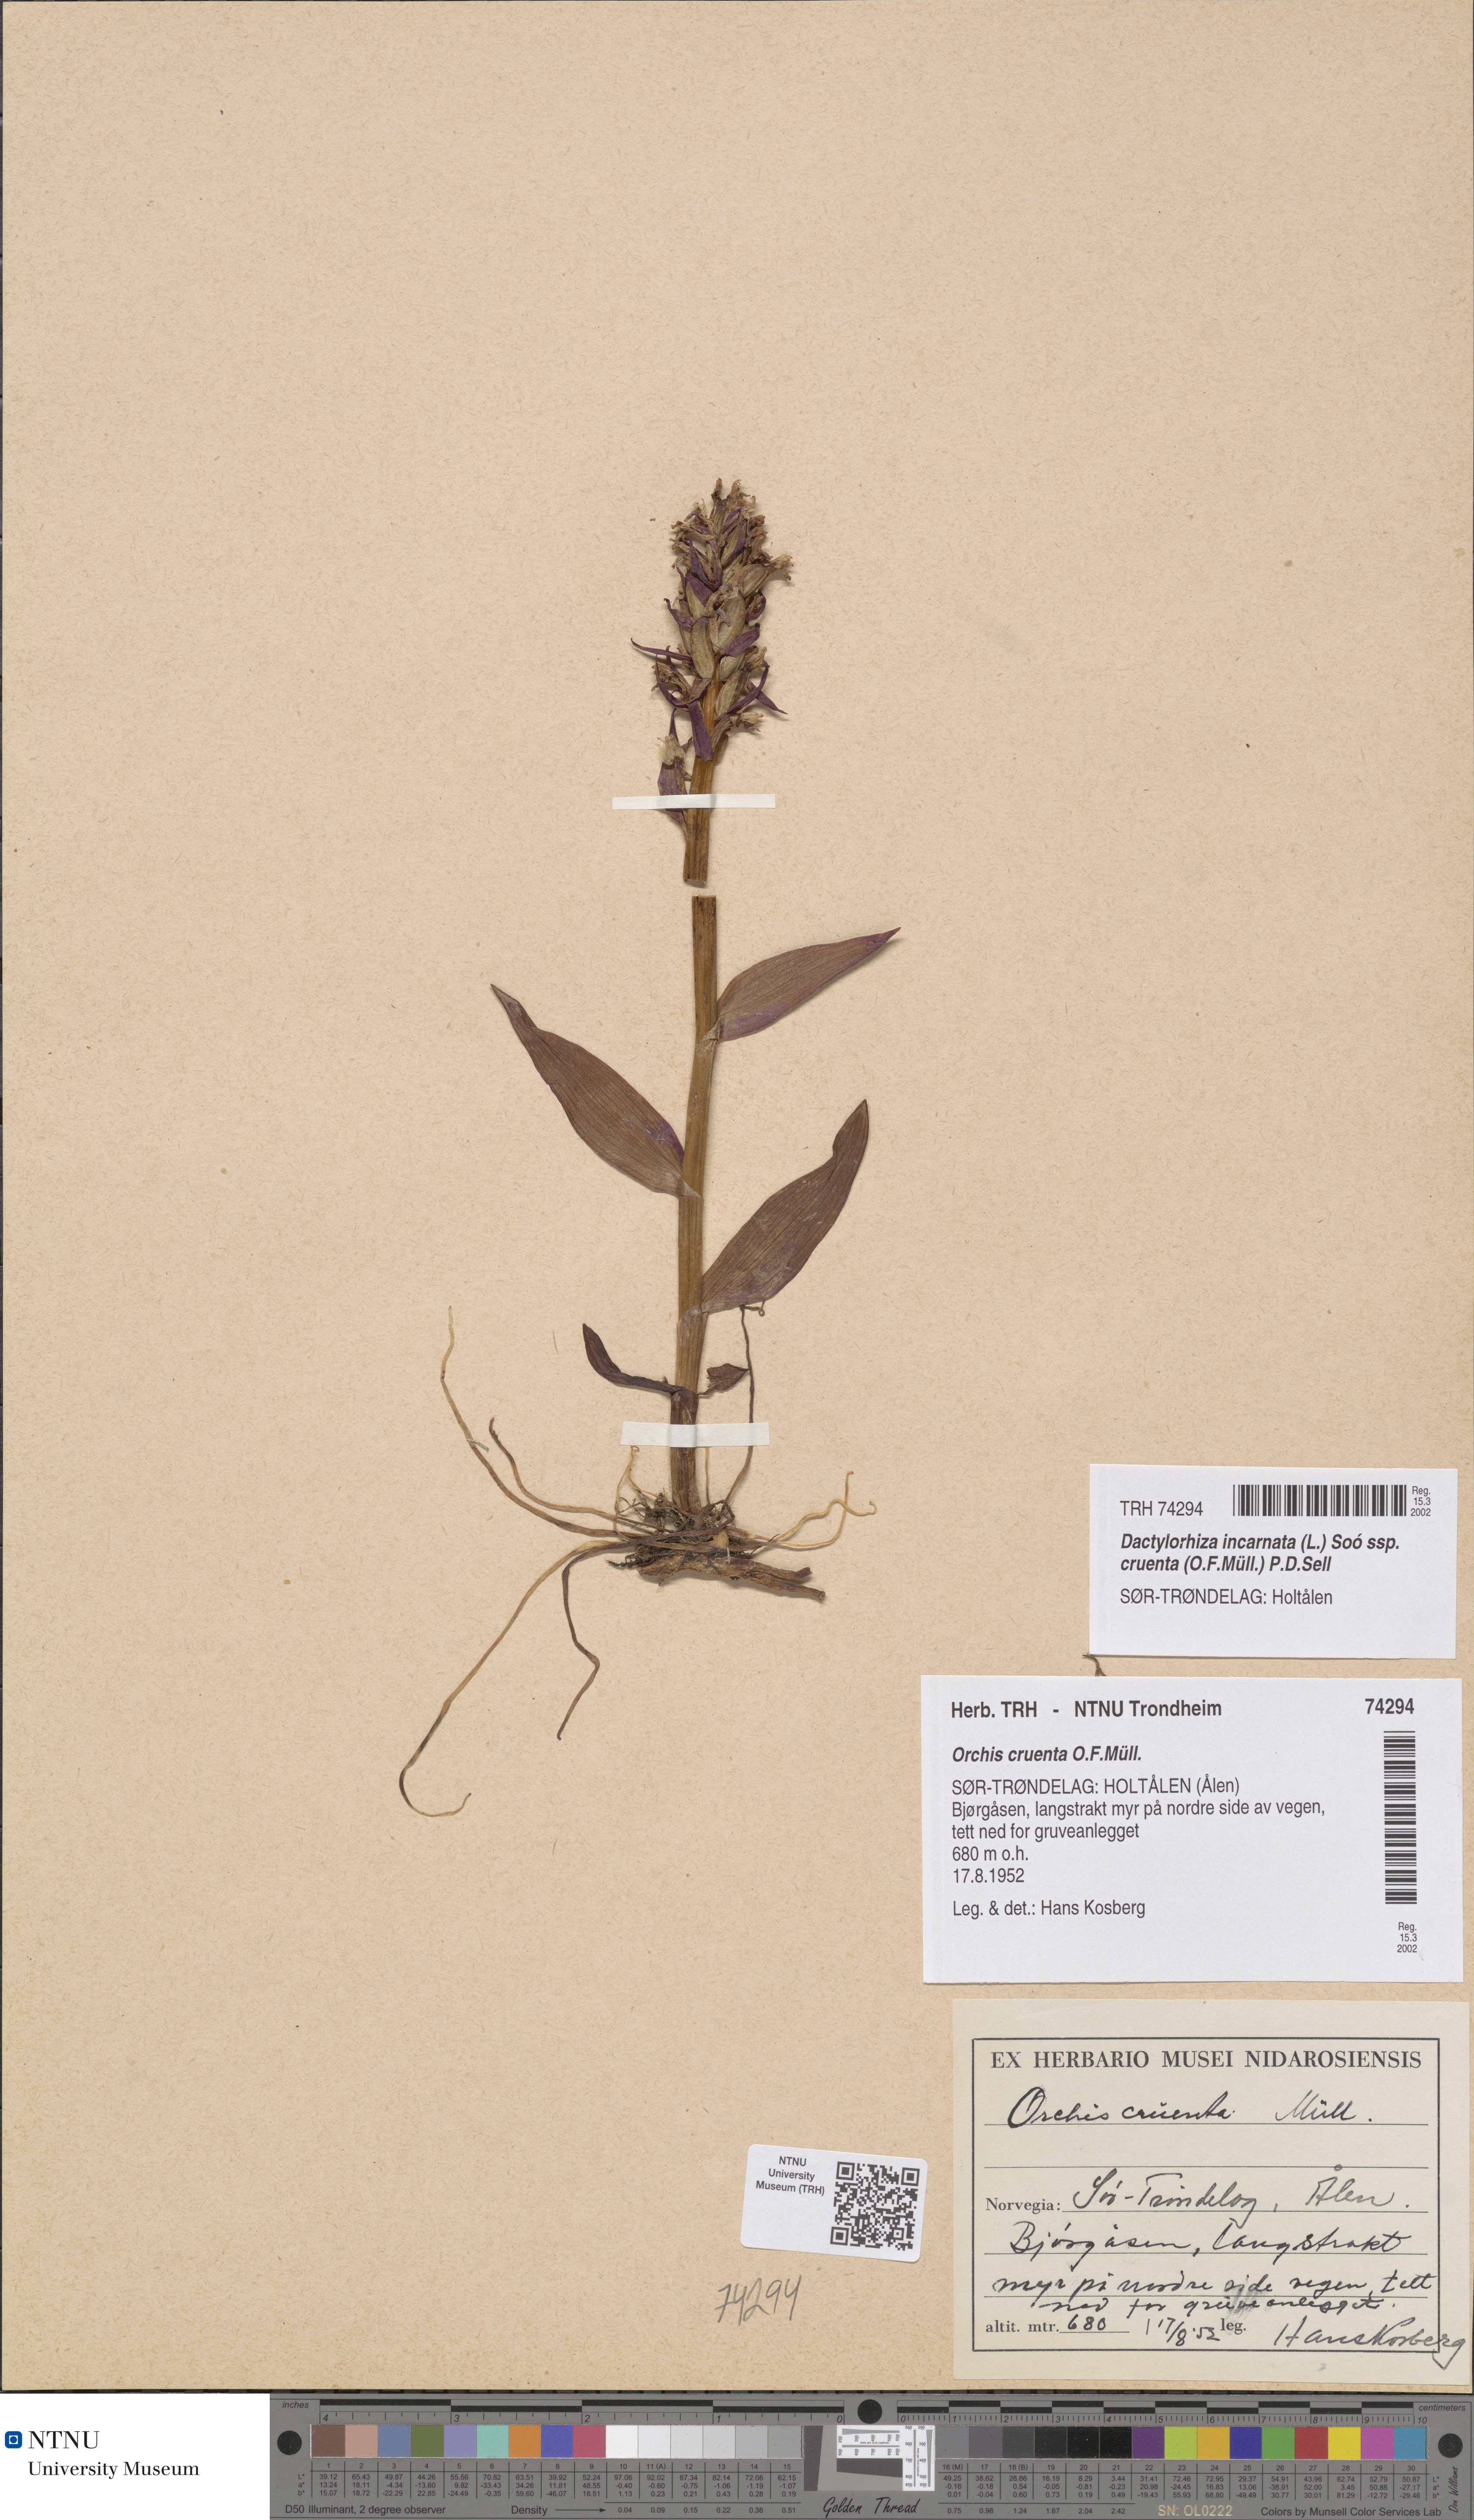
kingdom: Plantae
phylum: Tracheophyta
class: Liliopsida
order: Asparagales
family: Orchidaceae
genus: Dactylorhiza
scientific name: Dactylorhiza incarnata
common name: Early marsh-orchid
